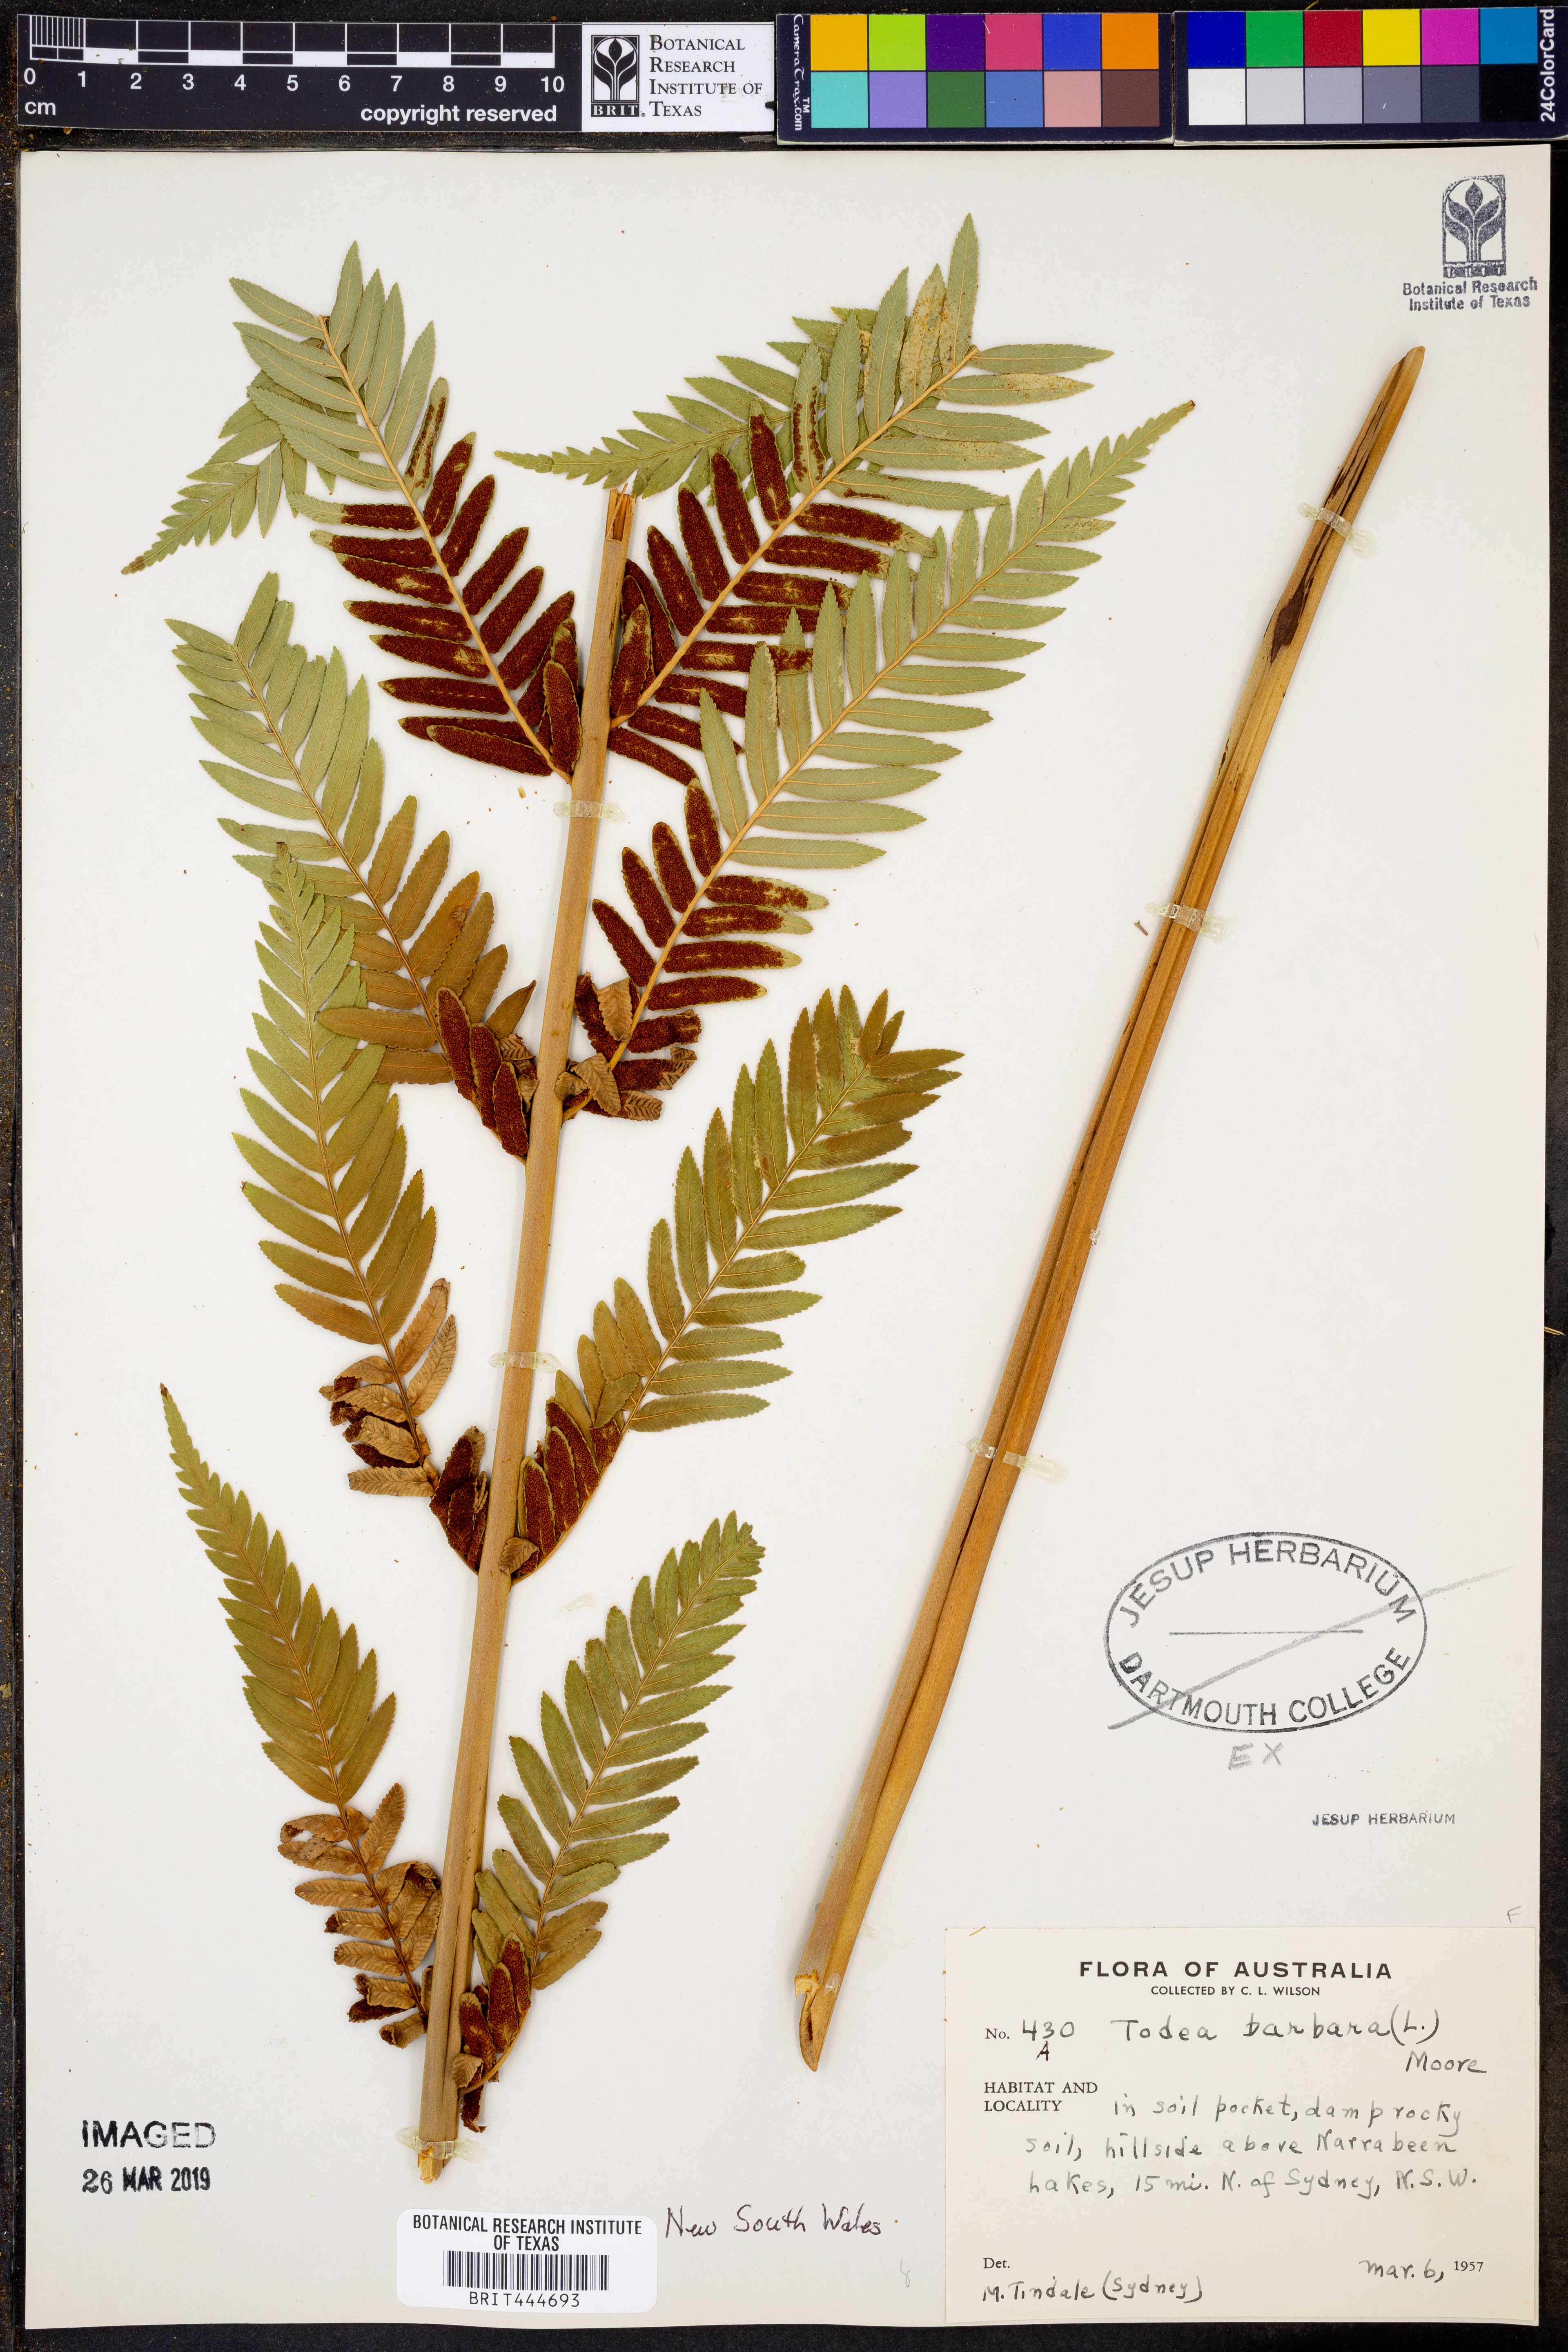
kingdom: Plantae
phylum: Tracheophyta
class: Polypodiopsida
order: Osmundales
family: Osmundaceae
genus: Todea
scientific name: Todea barbara
